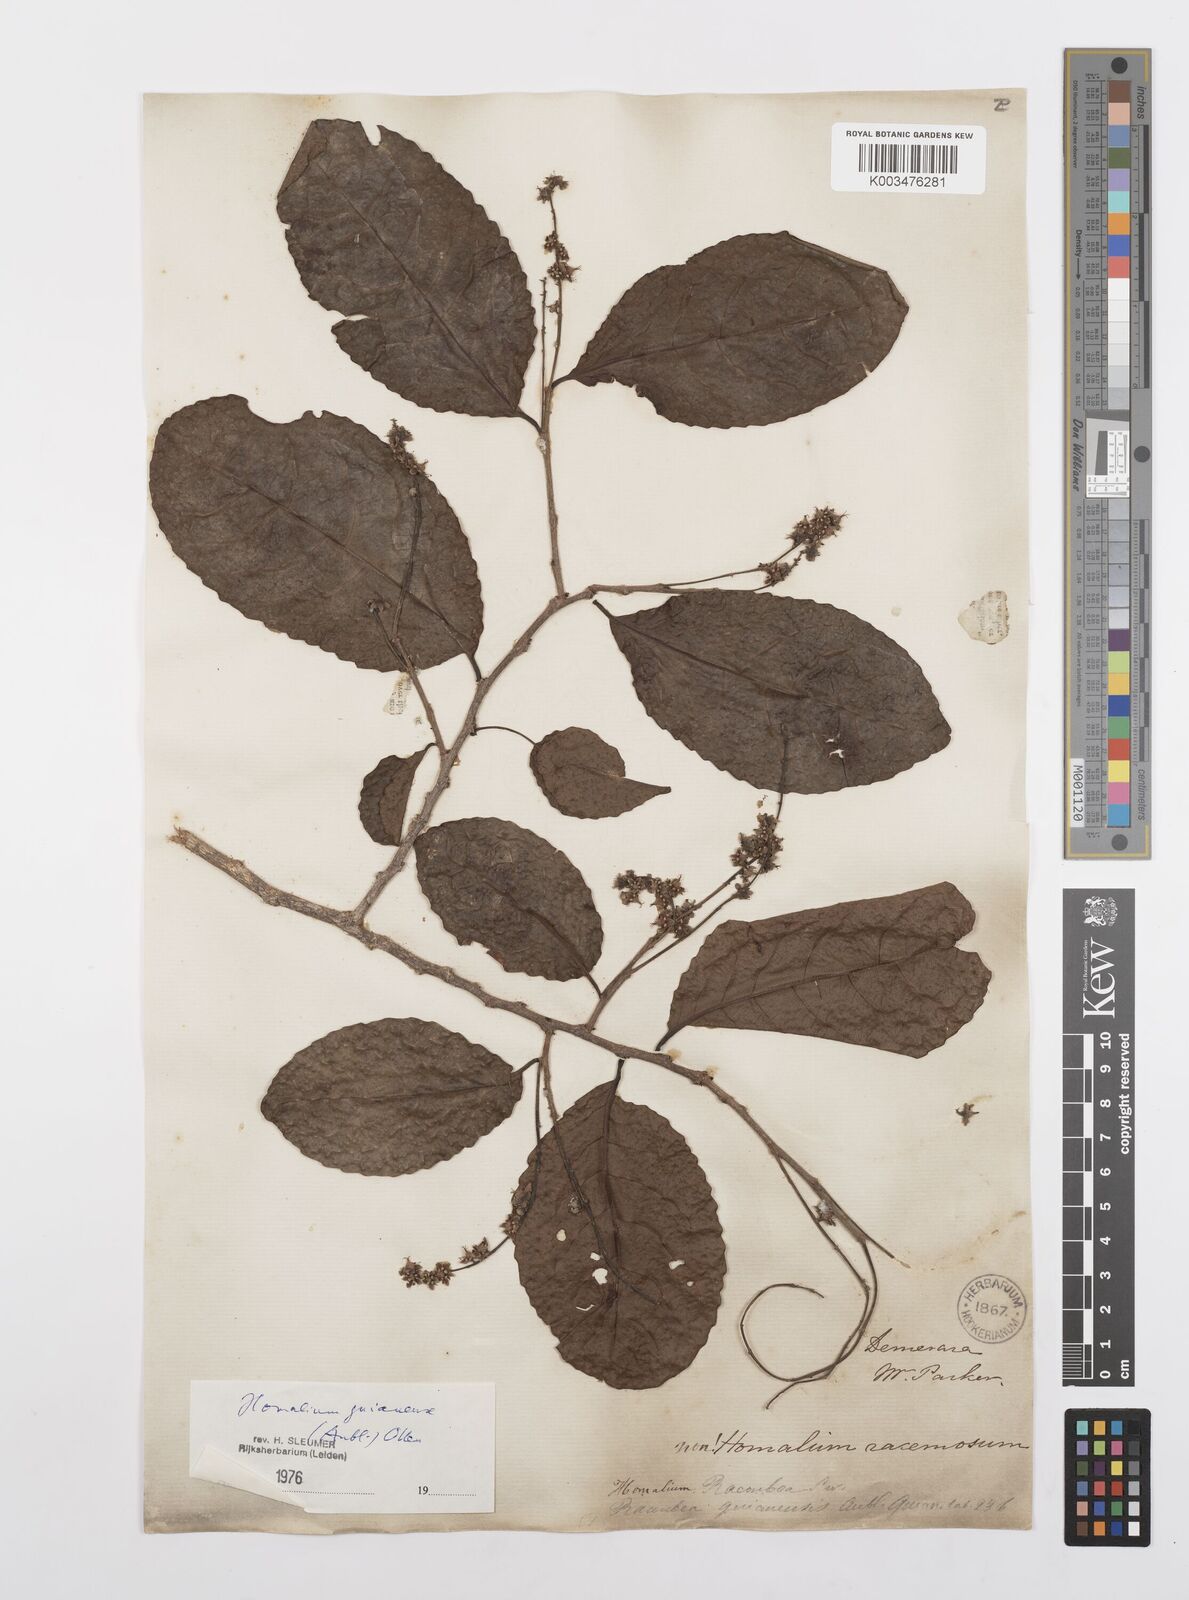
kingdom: Plantae
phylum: Tracheophyta
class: Magnoliopsida
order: Malpighiales
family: Salicaceae
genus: Homalium
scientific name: Homalium guianense
